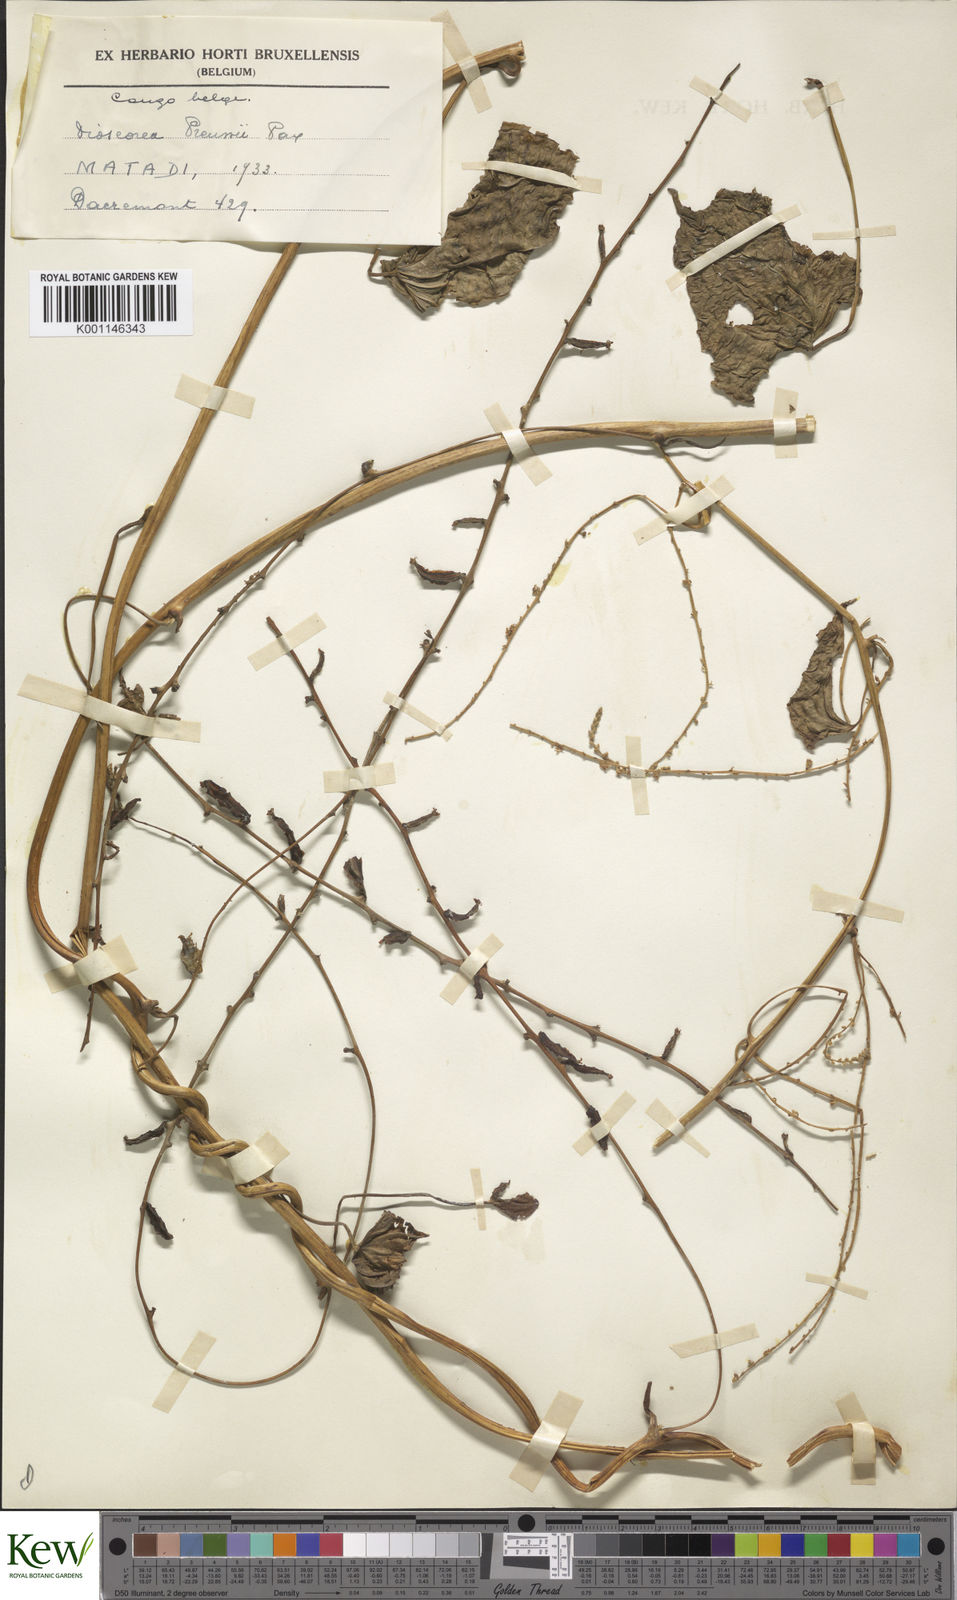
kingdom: Plantae
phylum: Tracheophyta
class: Liliopsida
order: Dioscoreales
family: Dioscoreaceae
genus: Dioscorea
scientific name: Dioscorea preussii
